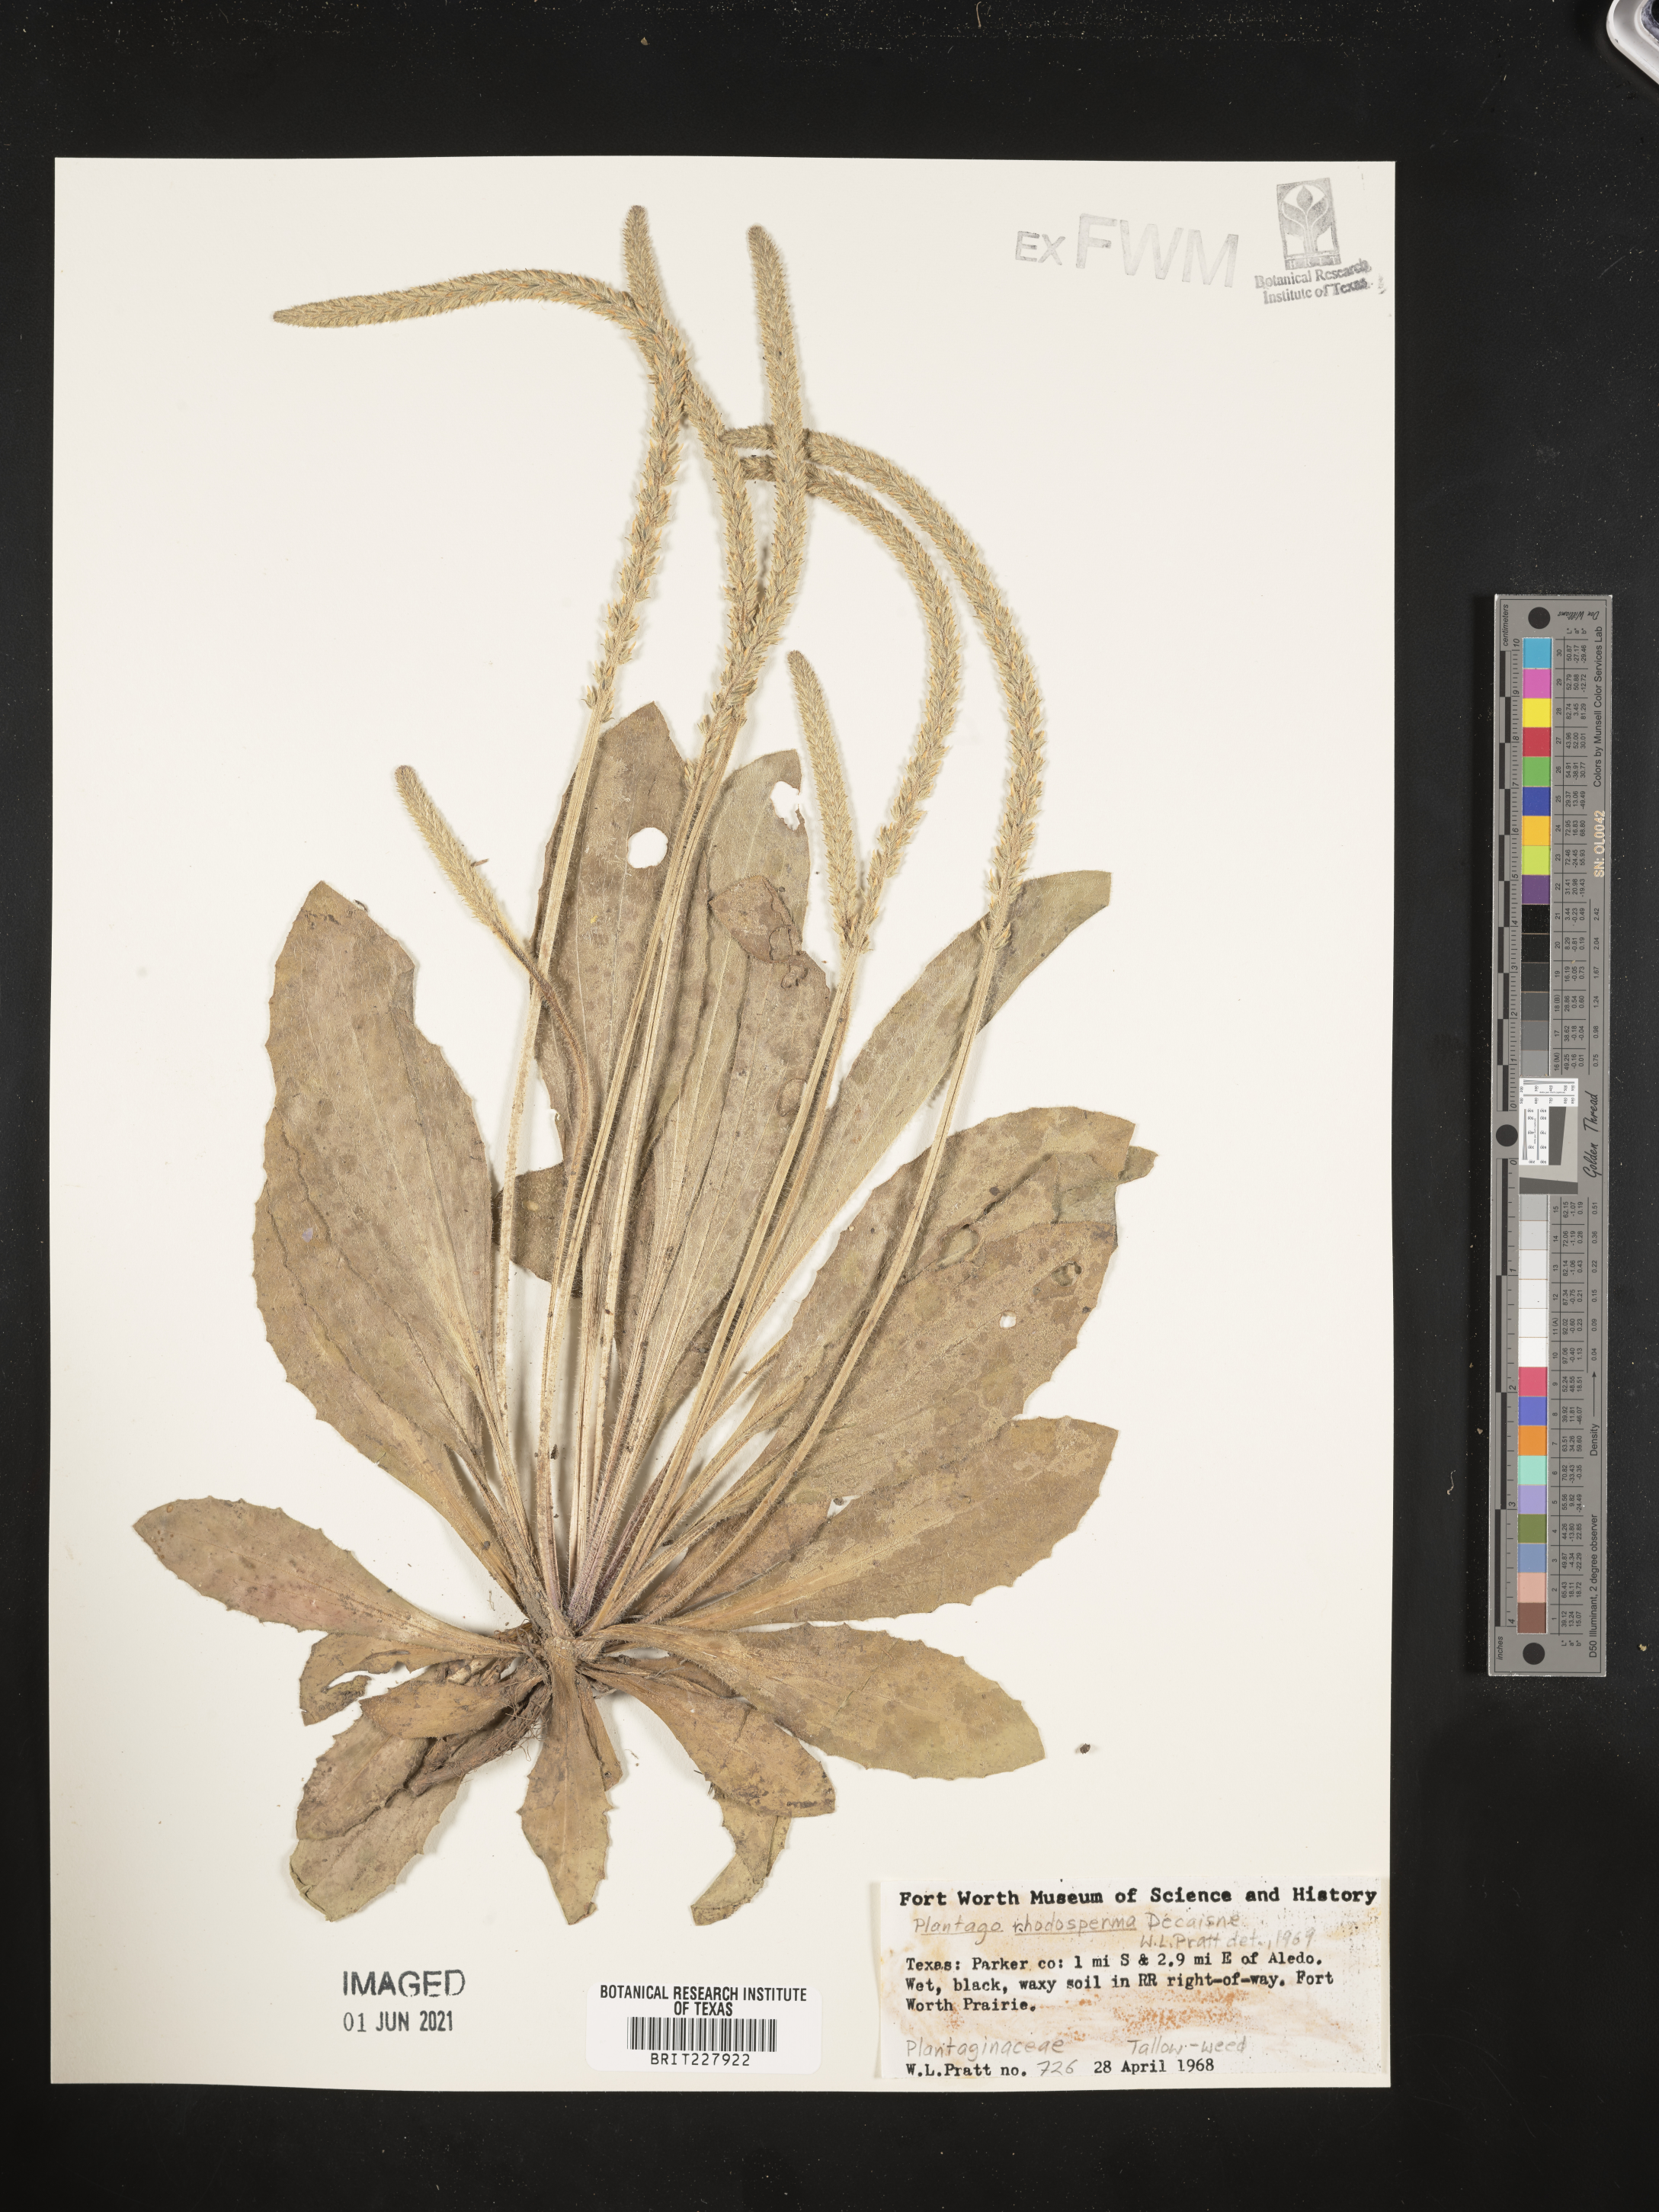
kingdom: Plantae
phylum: Tracheophyta
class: Magnoliopsida
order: Lamiales
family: Plantaginaceae
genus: Plantago
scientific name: Plantago rhodosperma
